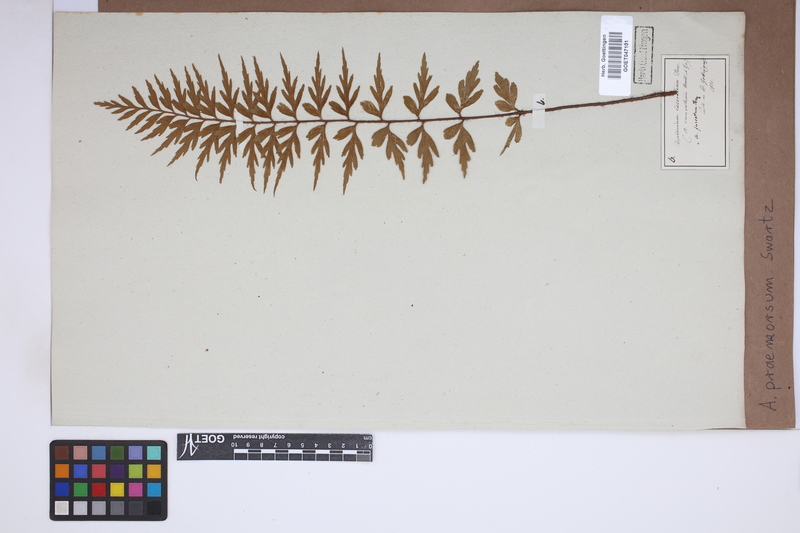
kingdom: Plantae
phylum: Tracheophyta
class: Polypodiopsida
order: Polypodiales
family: Aspleniaceae
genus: Asplenium
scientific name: Asplenium praemorsum
